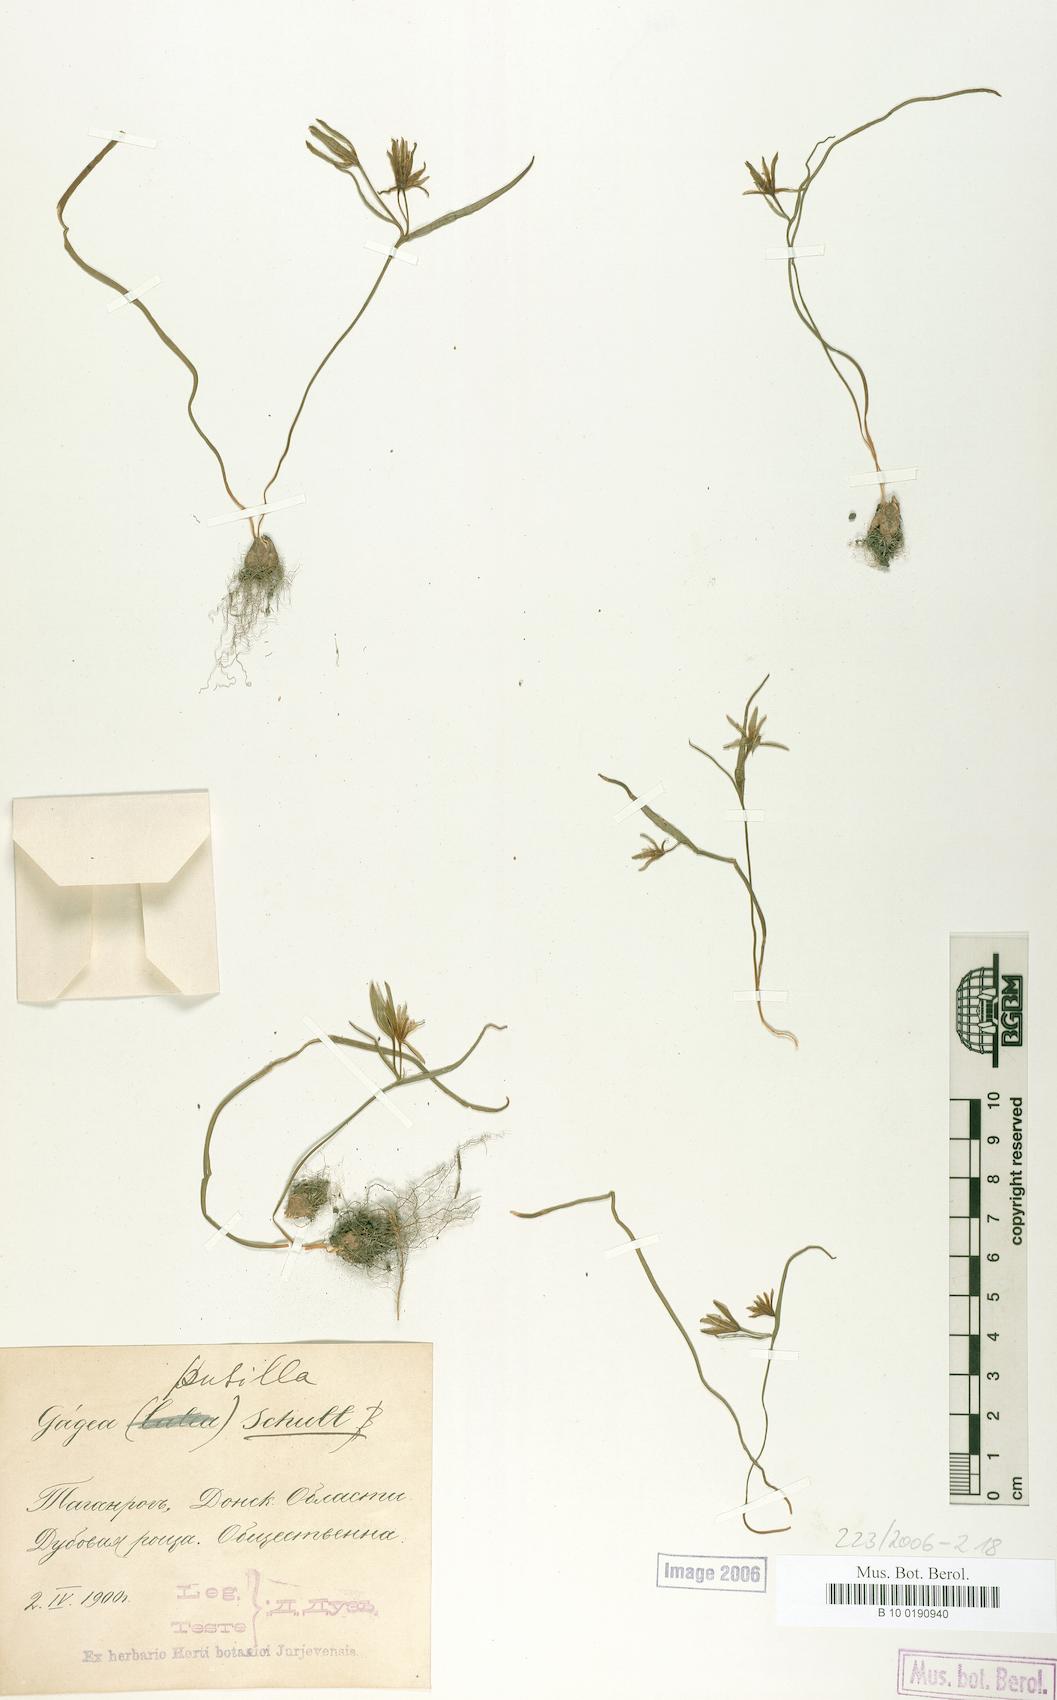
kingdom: Plantae
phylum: Tracheophyta
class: Liliopsida
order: Liliales
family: Liliaceae
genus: Gagea
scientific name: Gagea pusilla
